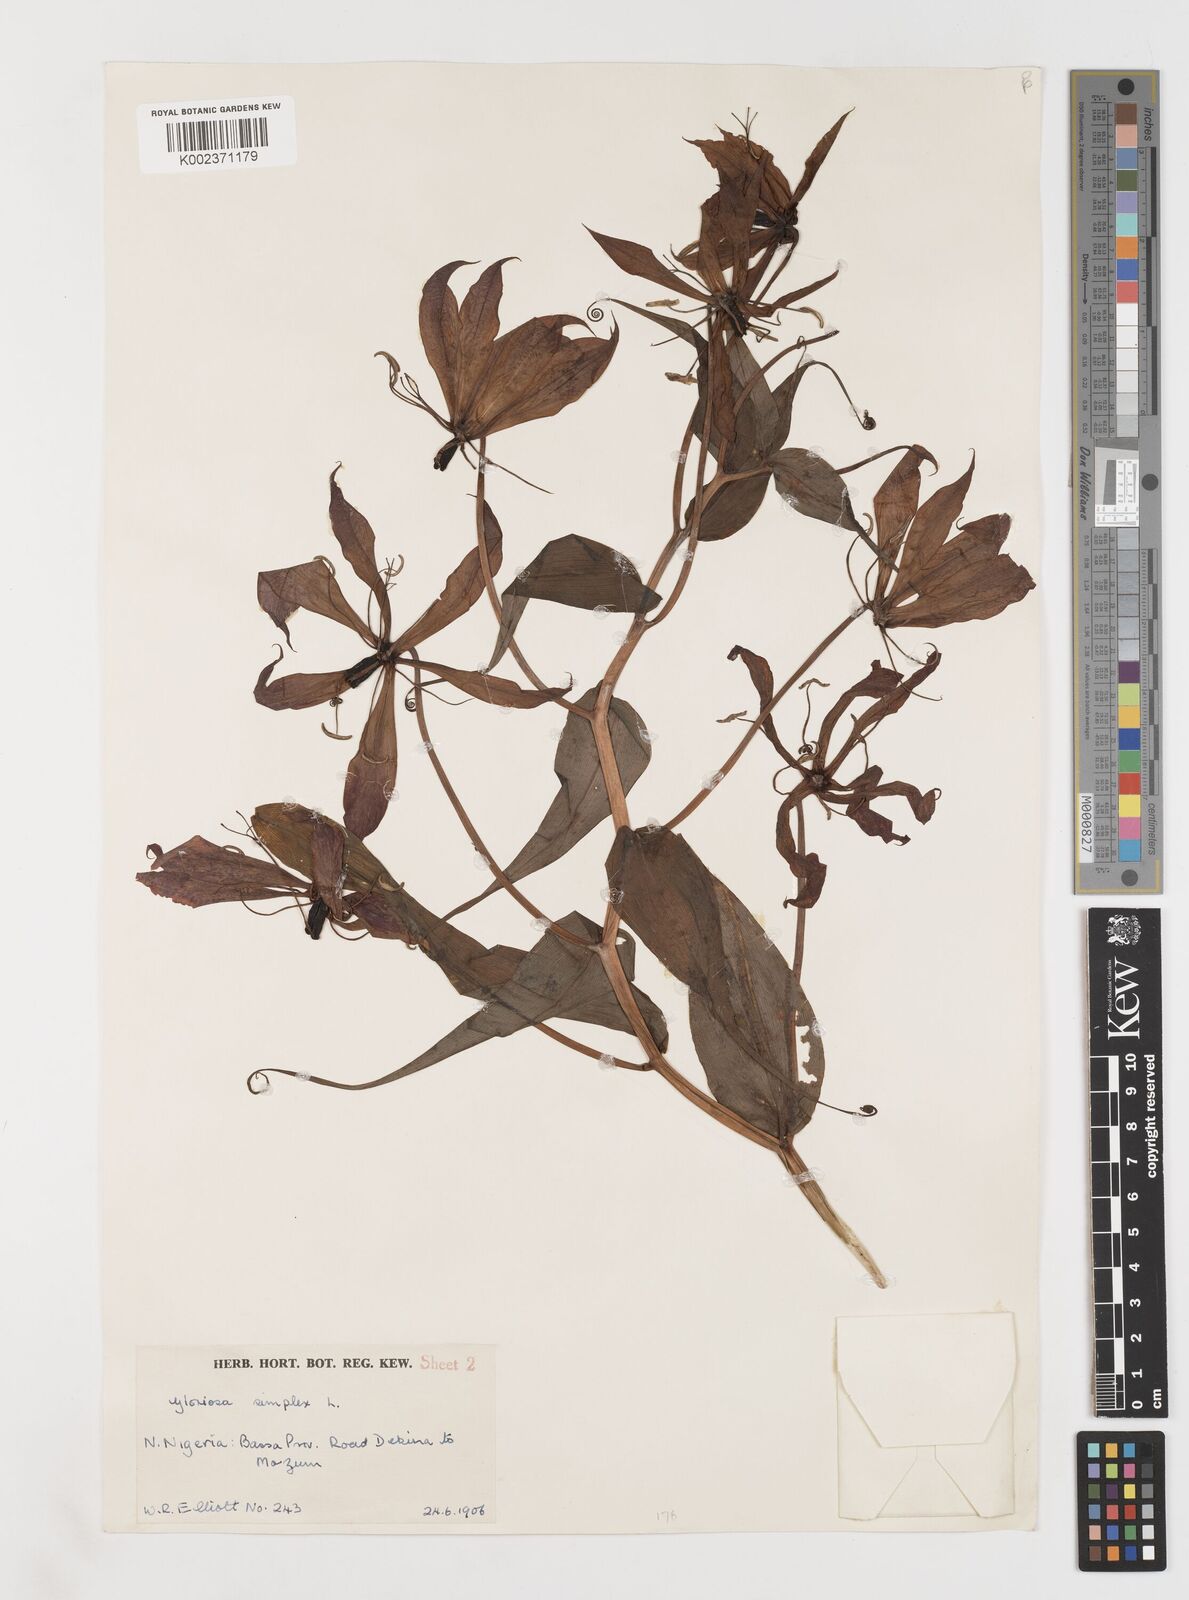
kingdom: Plantae
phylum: Tracheophyta
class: Liliopsida
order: Liliales
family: Colchicaceae
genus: Gloriosa
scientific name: Gloriosa simplex
